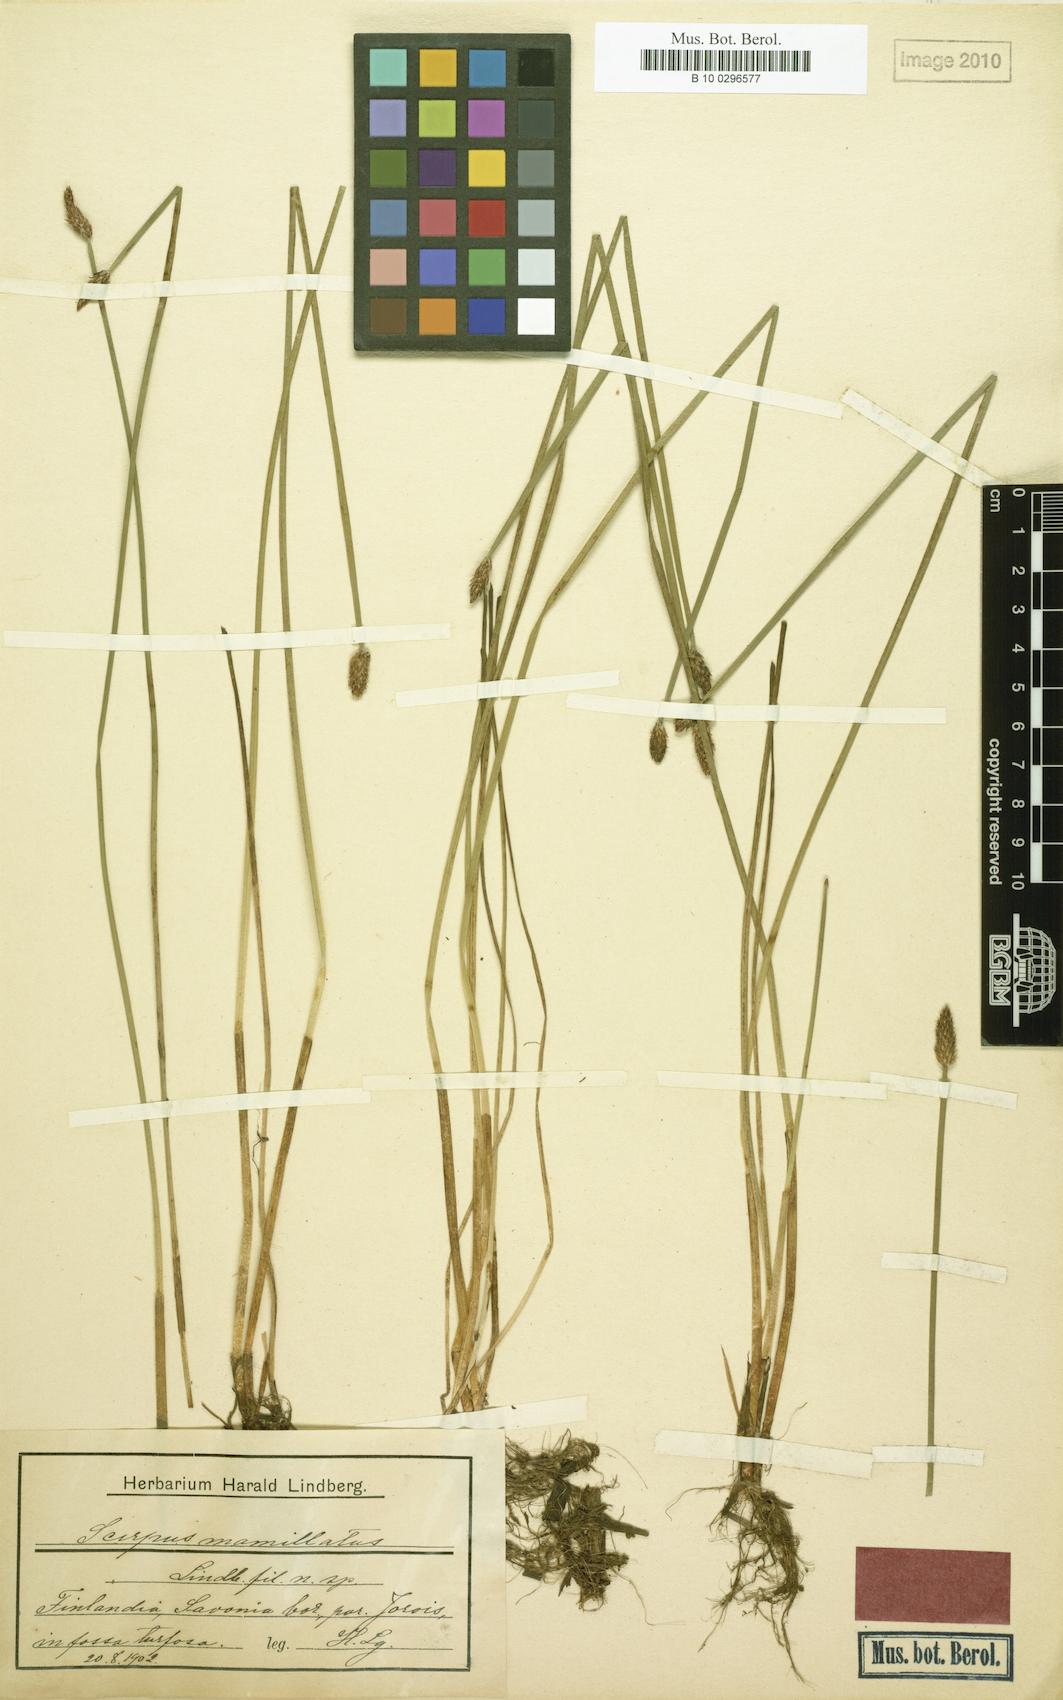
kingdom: Plantae
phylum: Tracheophyta
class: Liliopsida
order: Poales
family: Cyperaceae
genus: Eleocharis
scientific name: Eleocharis mamillata
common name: Northern spike-rush
